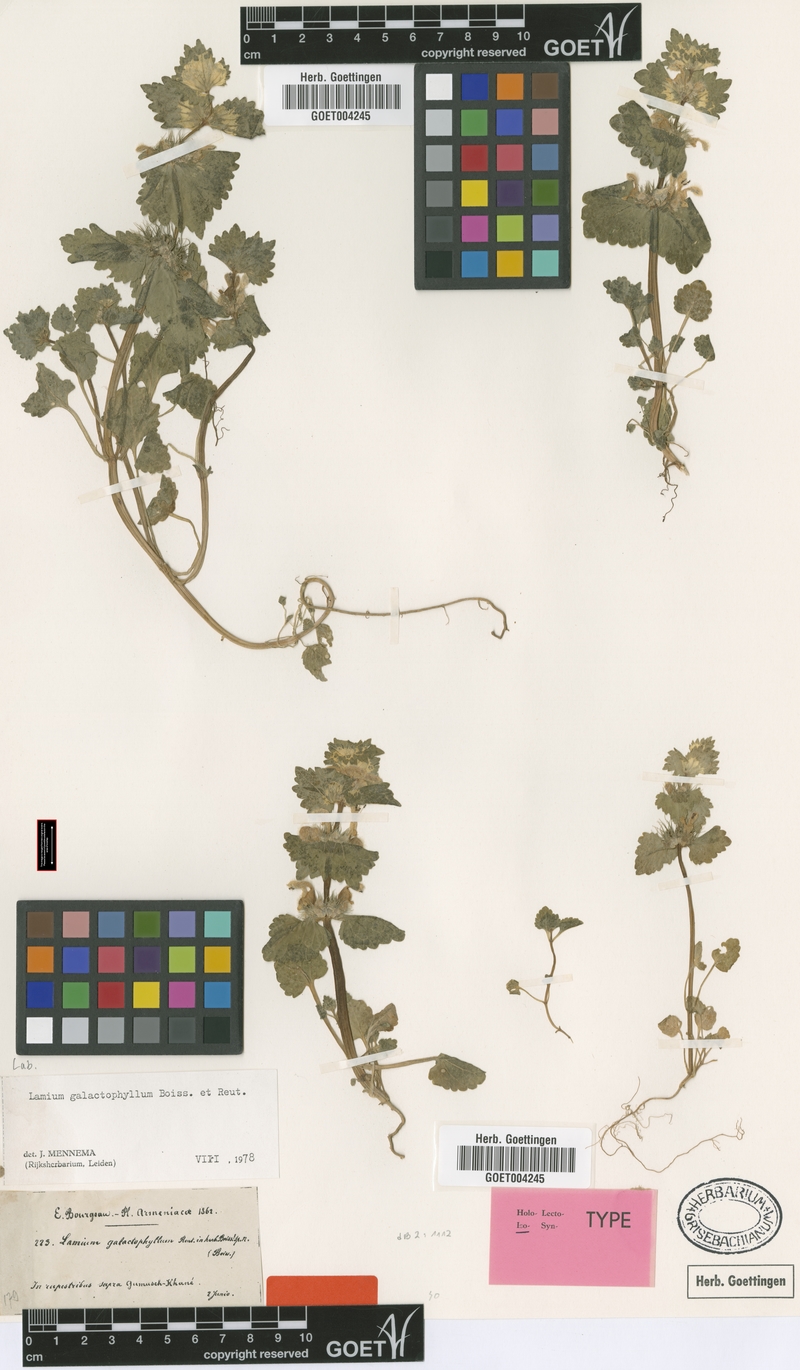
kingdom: Plantae
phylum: Tracheophyta
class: Magnoliopsida
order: Lamiales
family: Lamiaceae
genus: Lamium
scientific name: Lamium galactophyllum
